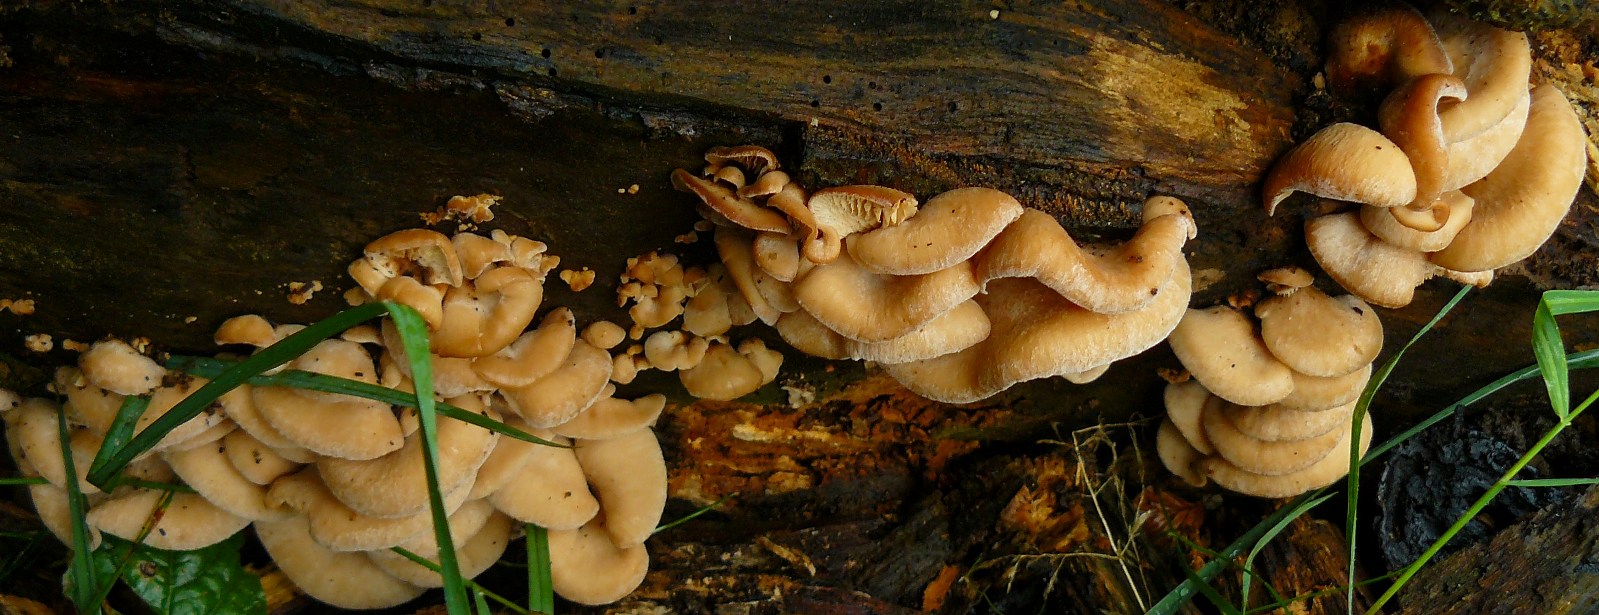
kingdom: Fungi
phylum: Basidiomycota
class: Agaricomycetes
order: Russulales
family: Auriscalpiaceae
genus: Lentinellus
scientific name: Lentinellus ursinus
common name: børstehåret savbladhat
